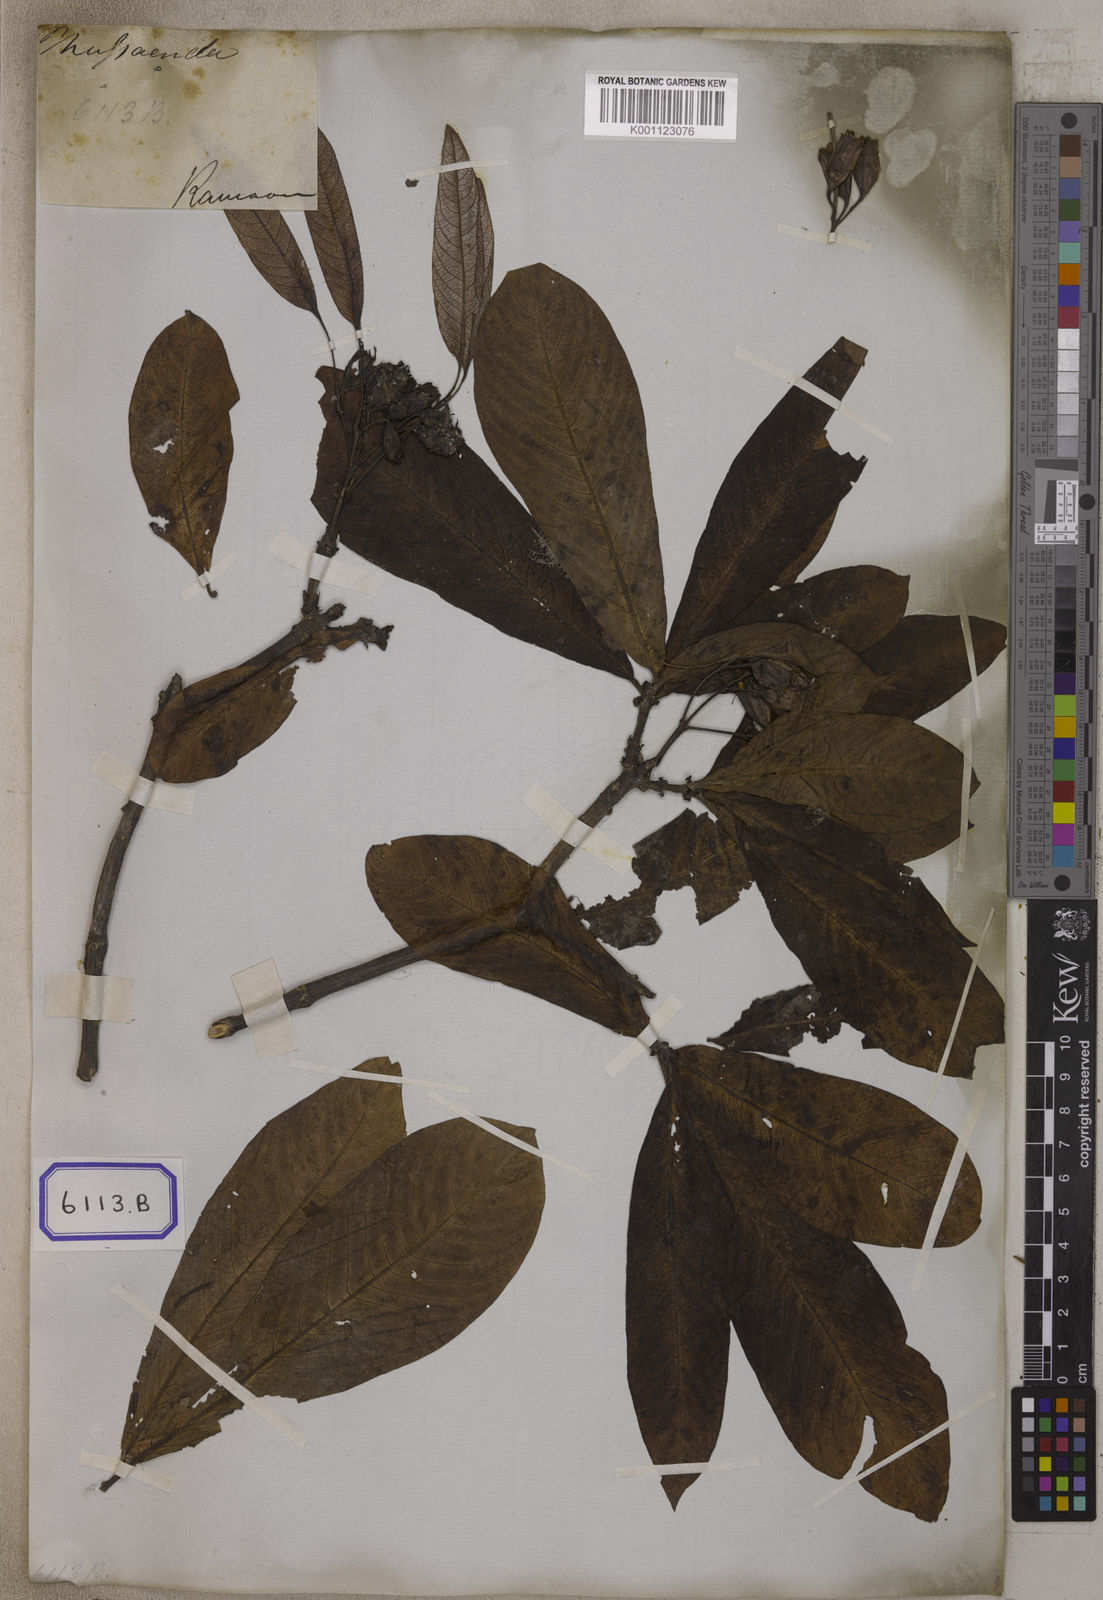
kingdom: Plantae
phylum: Tracheophyta
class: Magnoliopsida
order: Gentianales
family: Rubiaceae
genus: Neohymenopogon
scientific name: Neohymenopogon parasiticus
